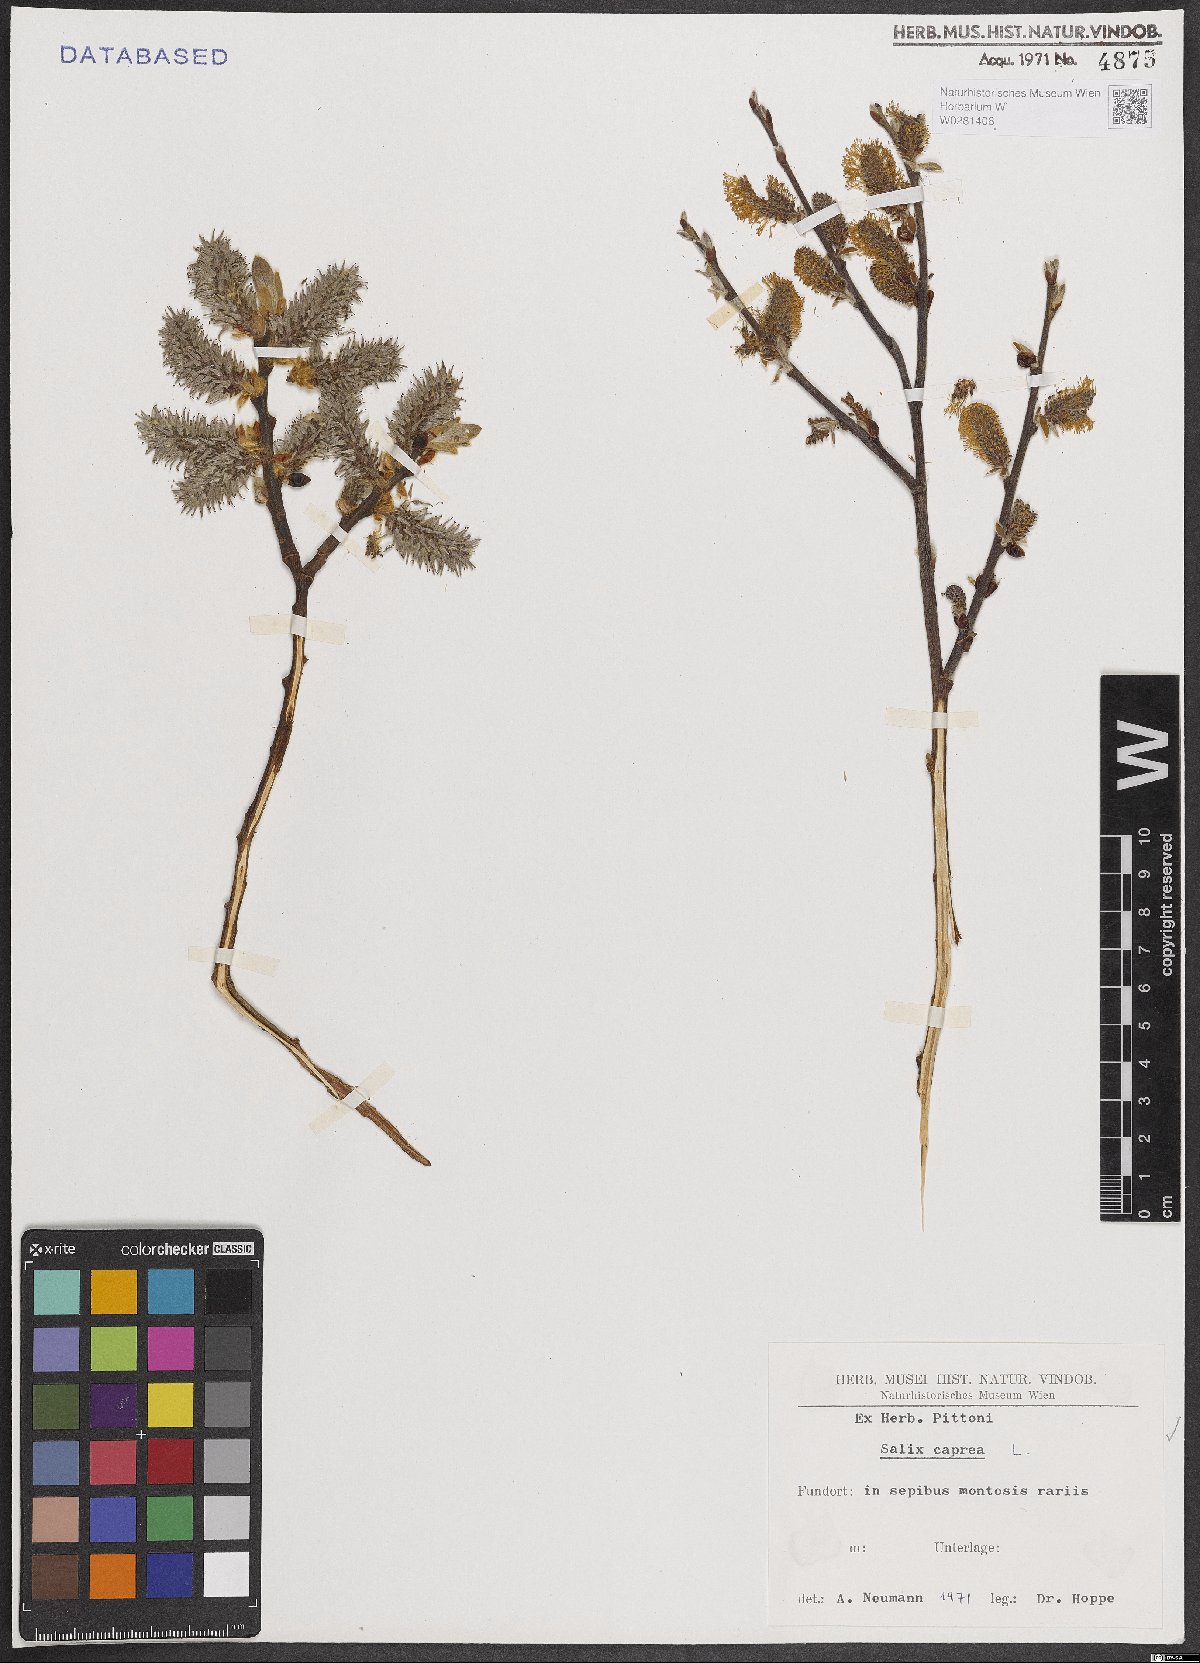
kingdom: Plantae
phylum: Tracheophyta
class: Magnoliopsida
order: Malpighiales
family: Salicaceae
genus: Salix
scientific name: Salix caprea
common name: Goat willow
